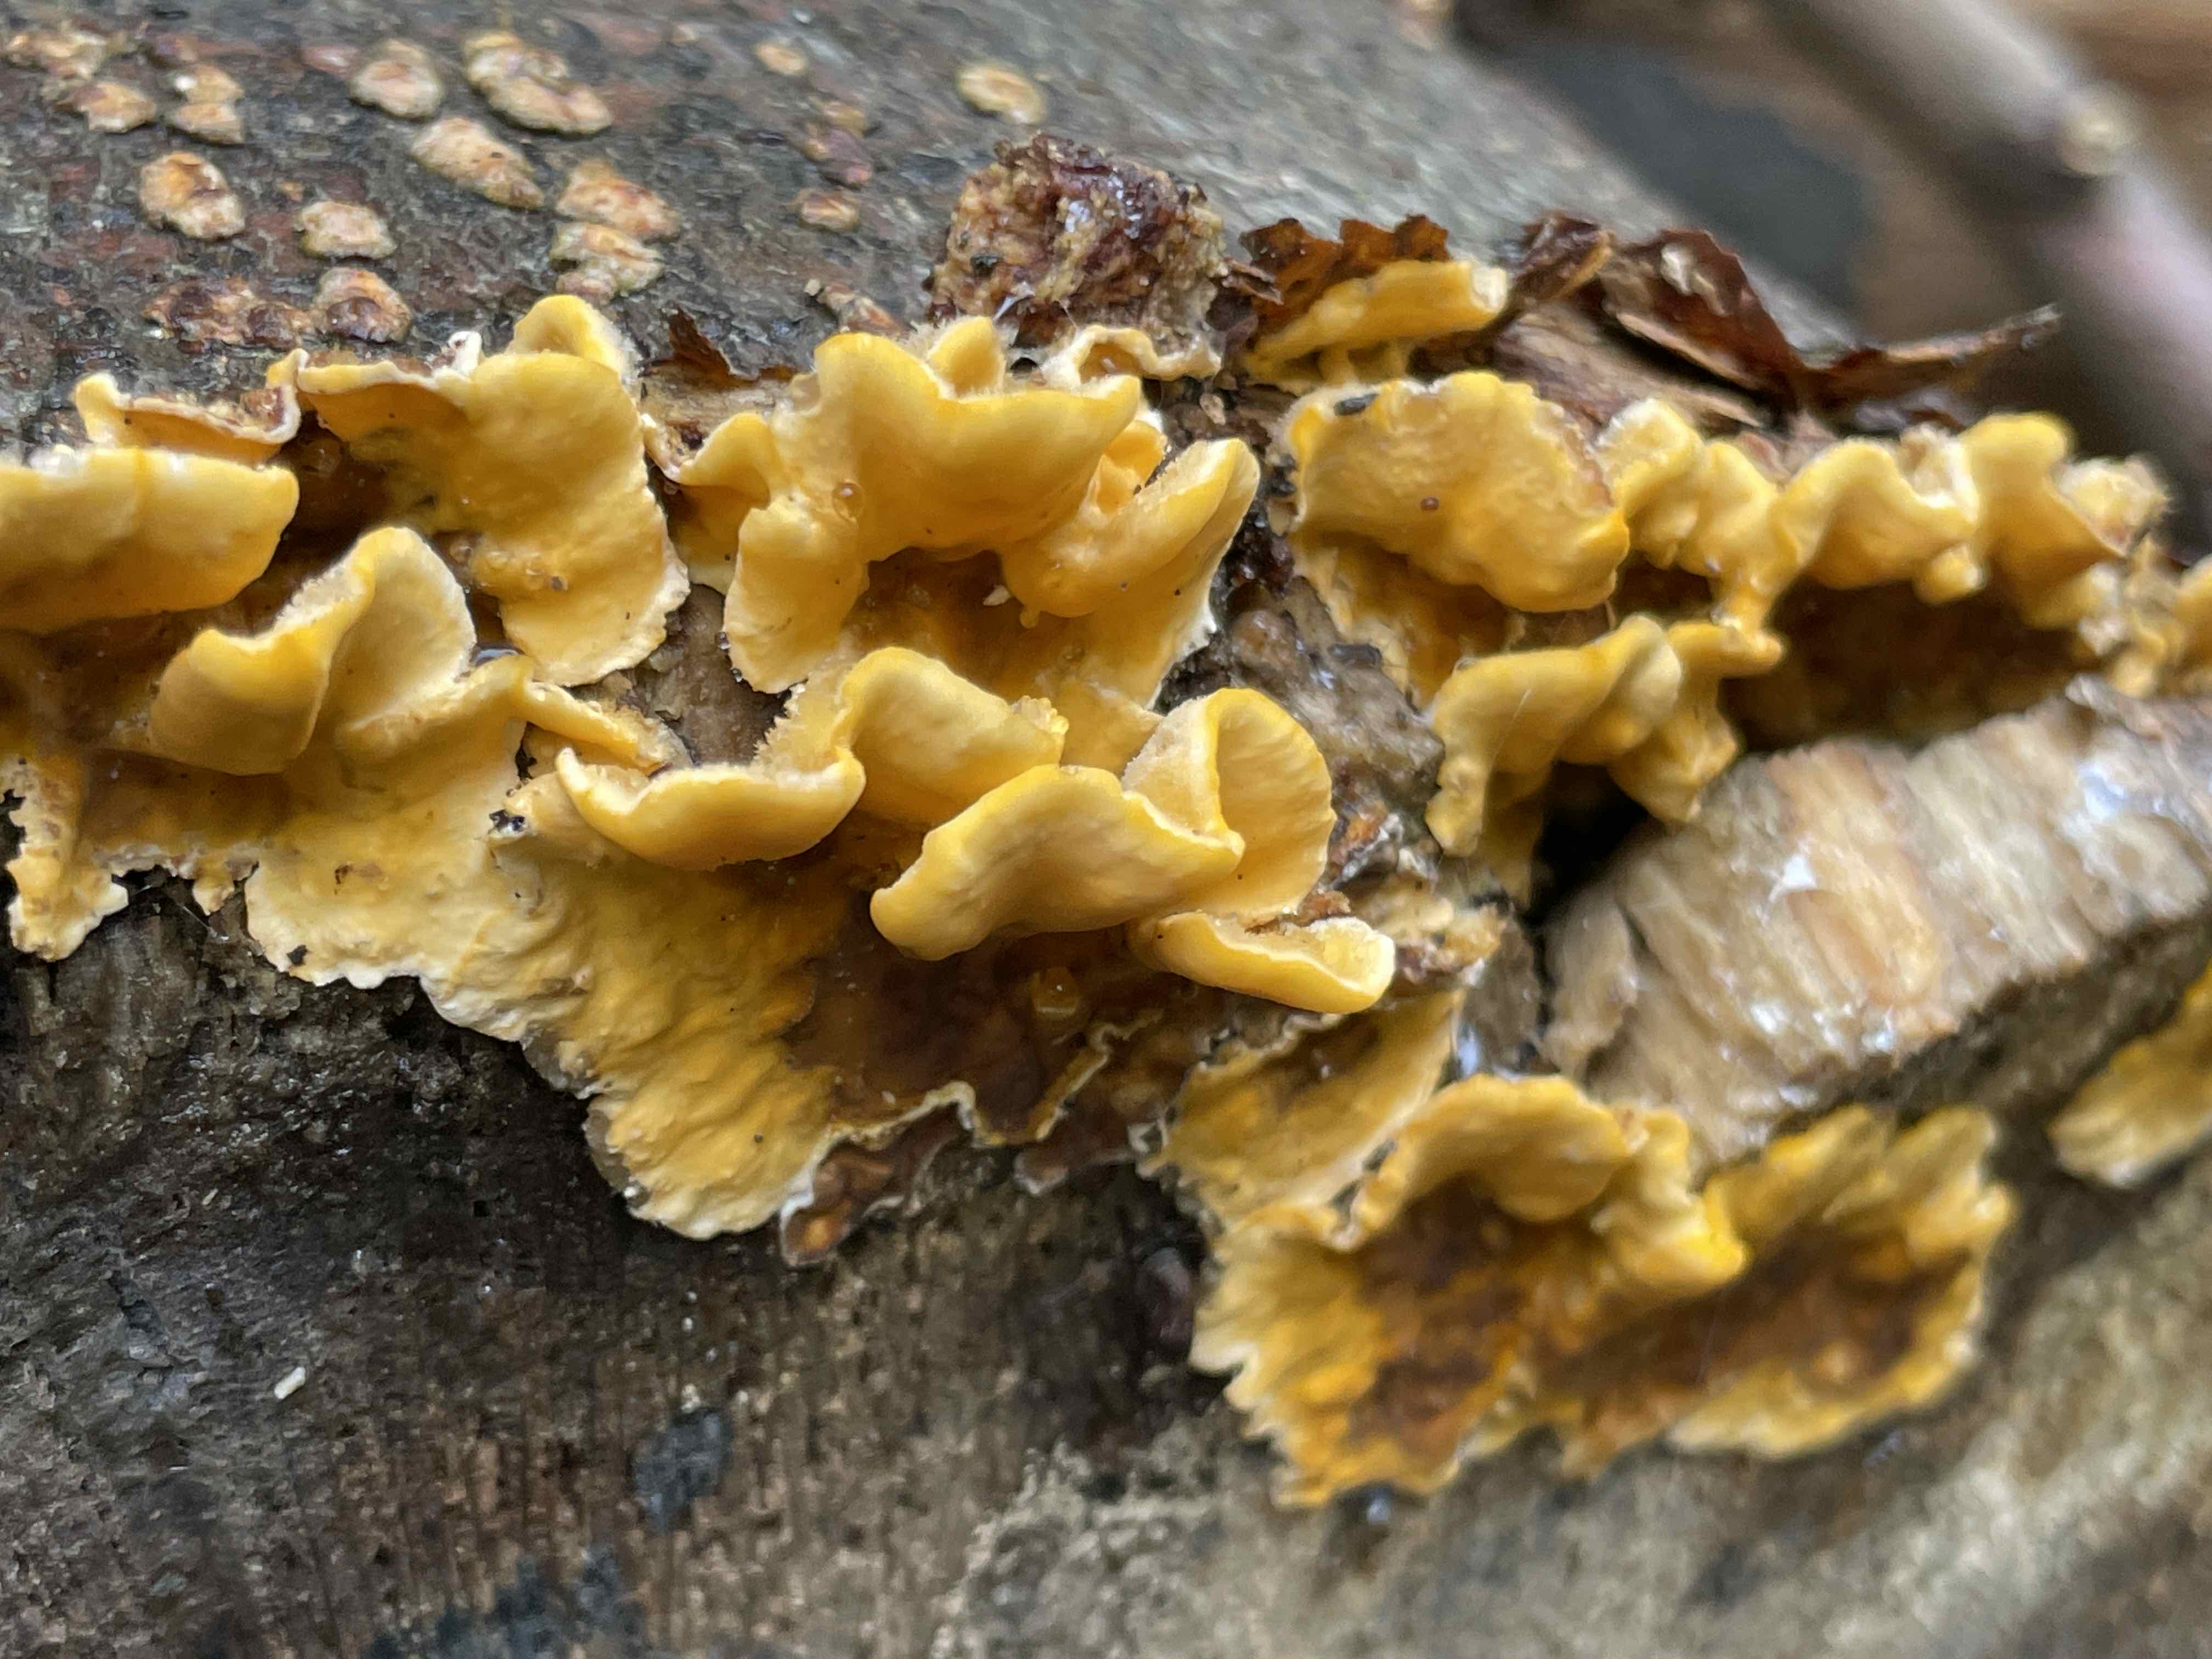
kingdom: Fungi
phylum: Basidiomycota
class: Agaricomycetes
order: Russulales
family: Stereaceae
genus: Stereum
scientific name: Stereum hirsutum
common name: håret lædersvamp
